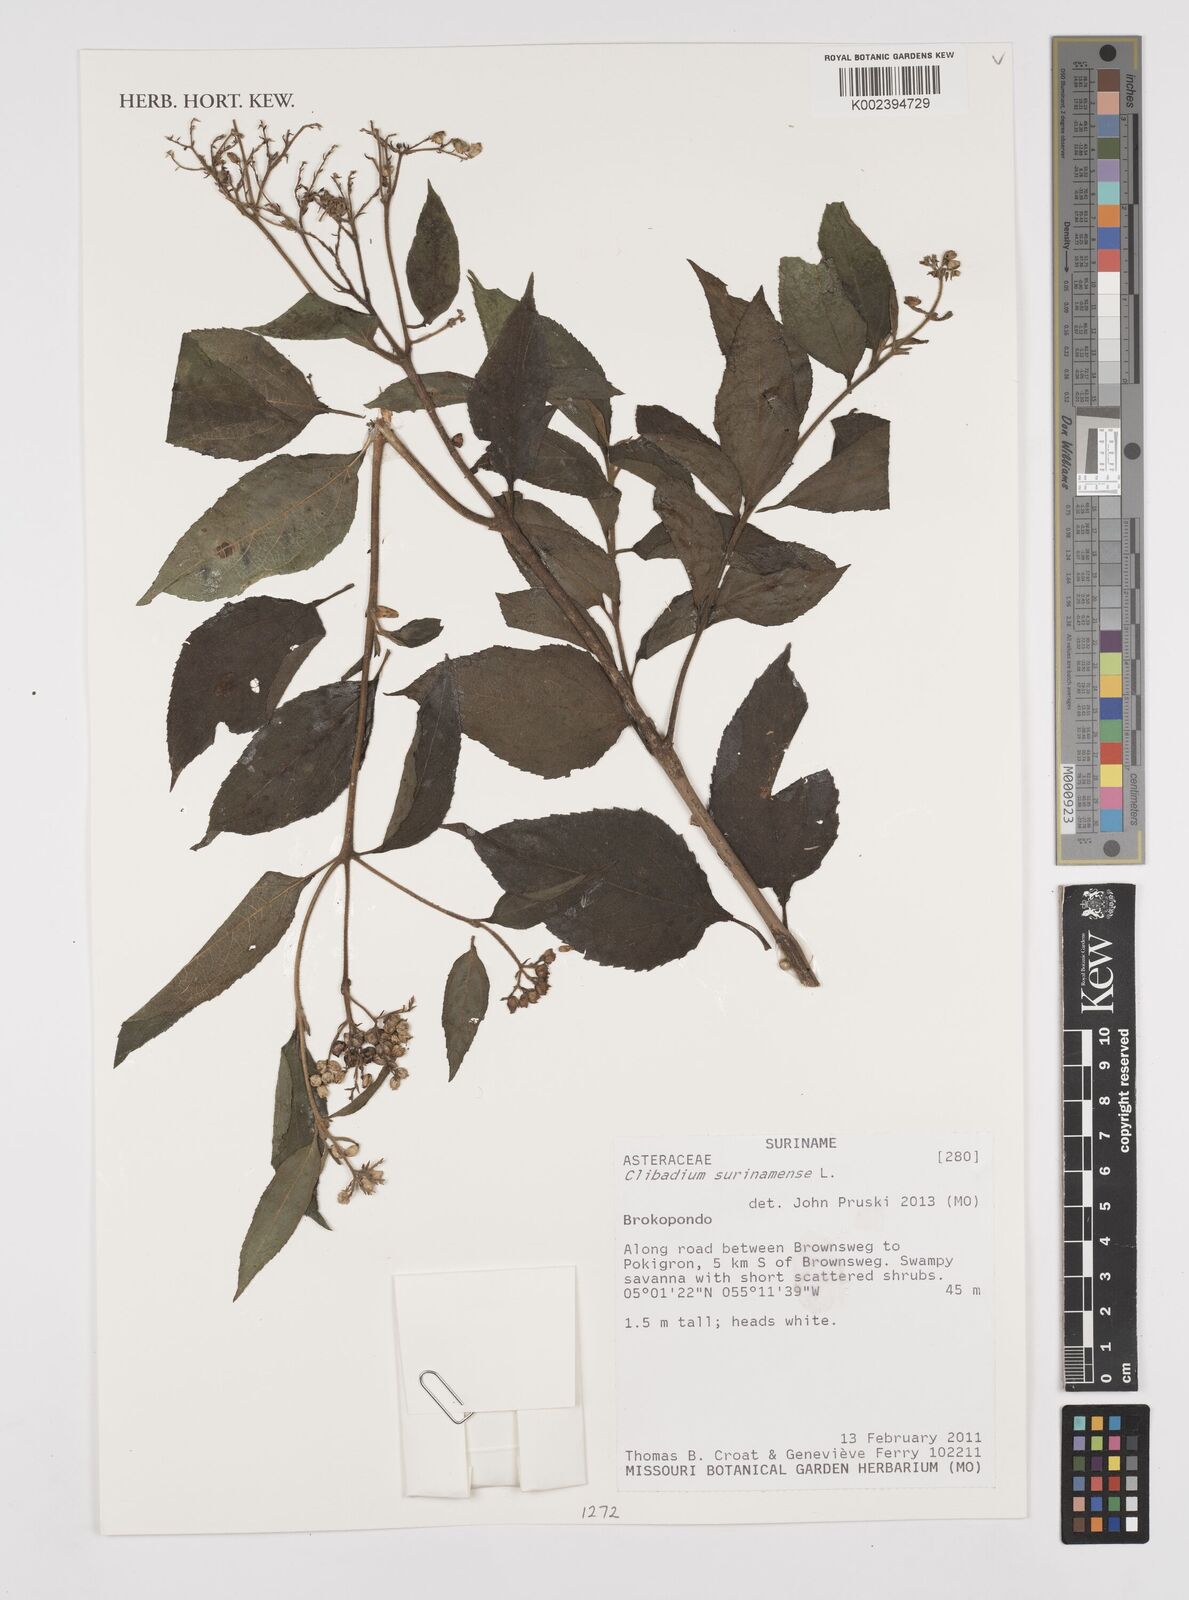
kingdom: Plantae
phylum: Tracheophyta
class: Magnoliopsida
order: Asterales
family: Asteraceae
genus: Clibadium
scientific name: Clibadium surinamense
